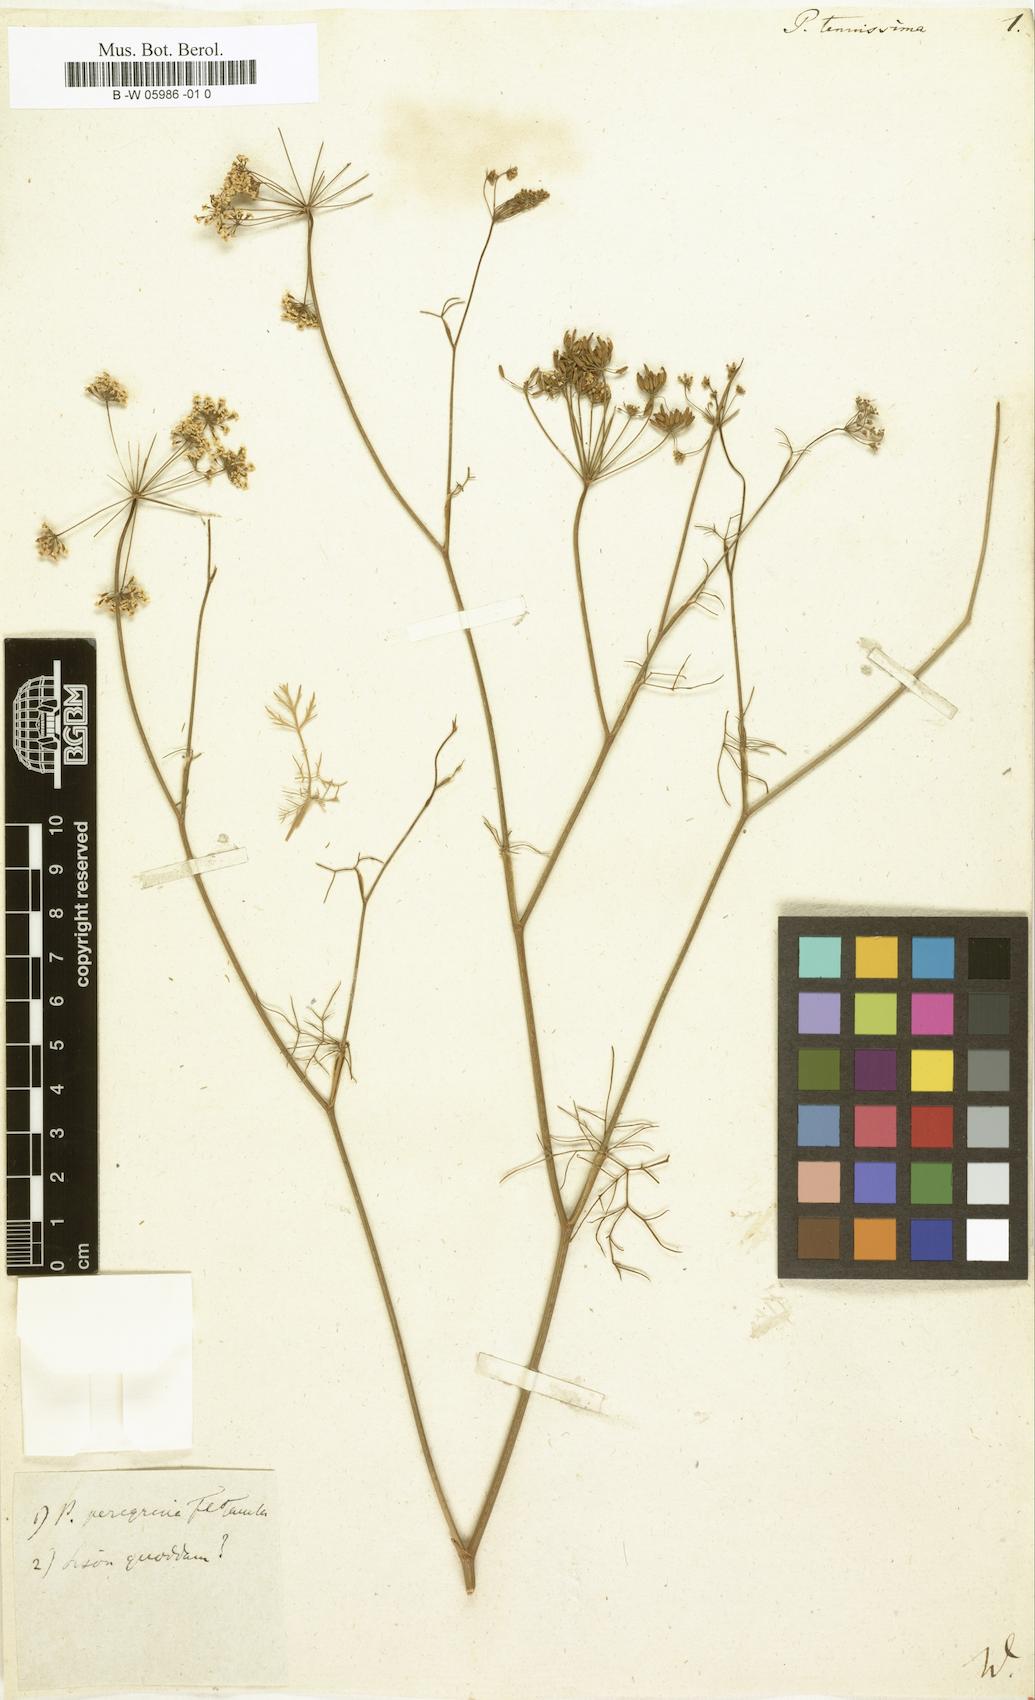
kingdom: Plantae
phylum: Tracheophyta
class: Magnoliopsida
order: Apiales
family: Apiaceae
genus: Pimpinella
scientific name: Pimpinella erythraeae
